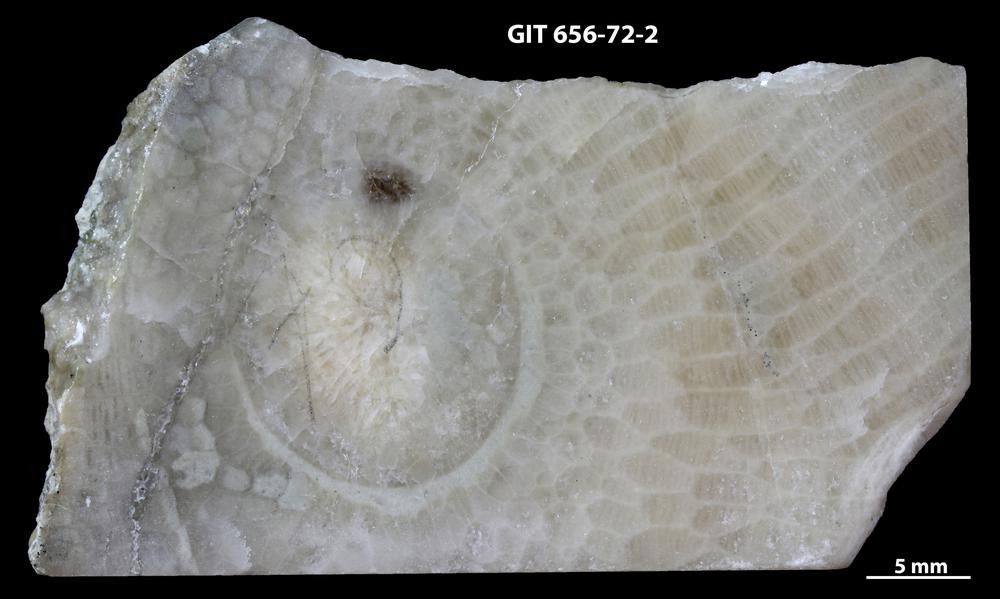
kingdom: Animalia
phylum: Cnidaria
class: Anthozoa
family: Cyathophyllidae
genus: Cystiphyllum
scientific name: Cystiphyllum
